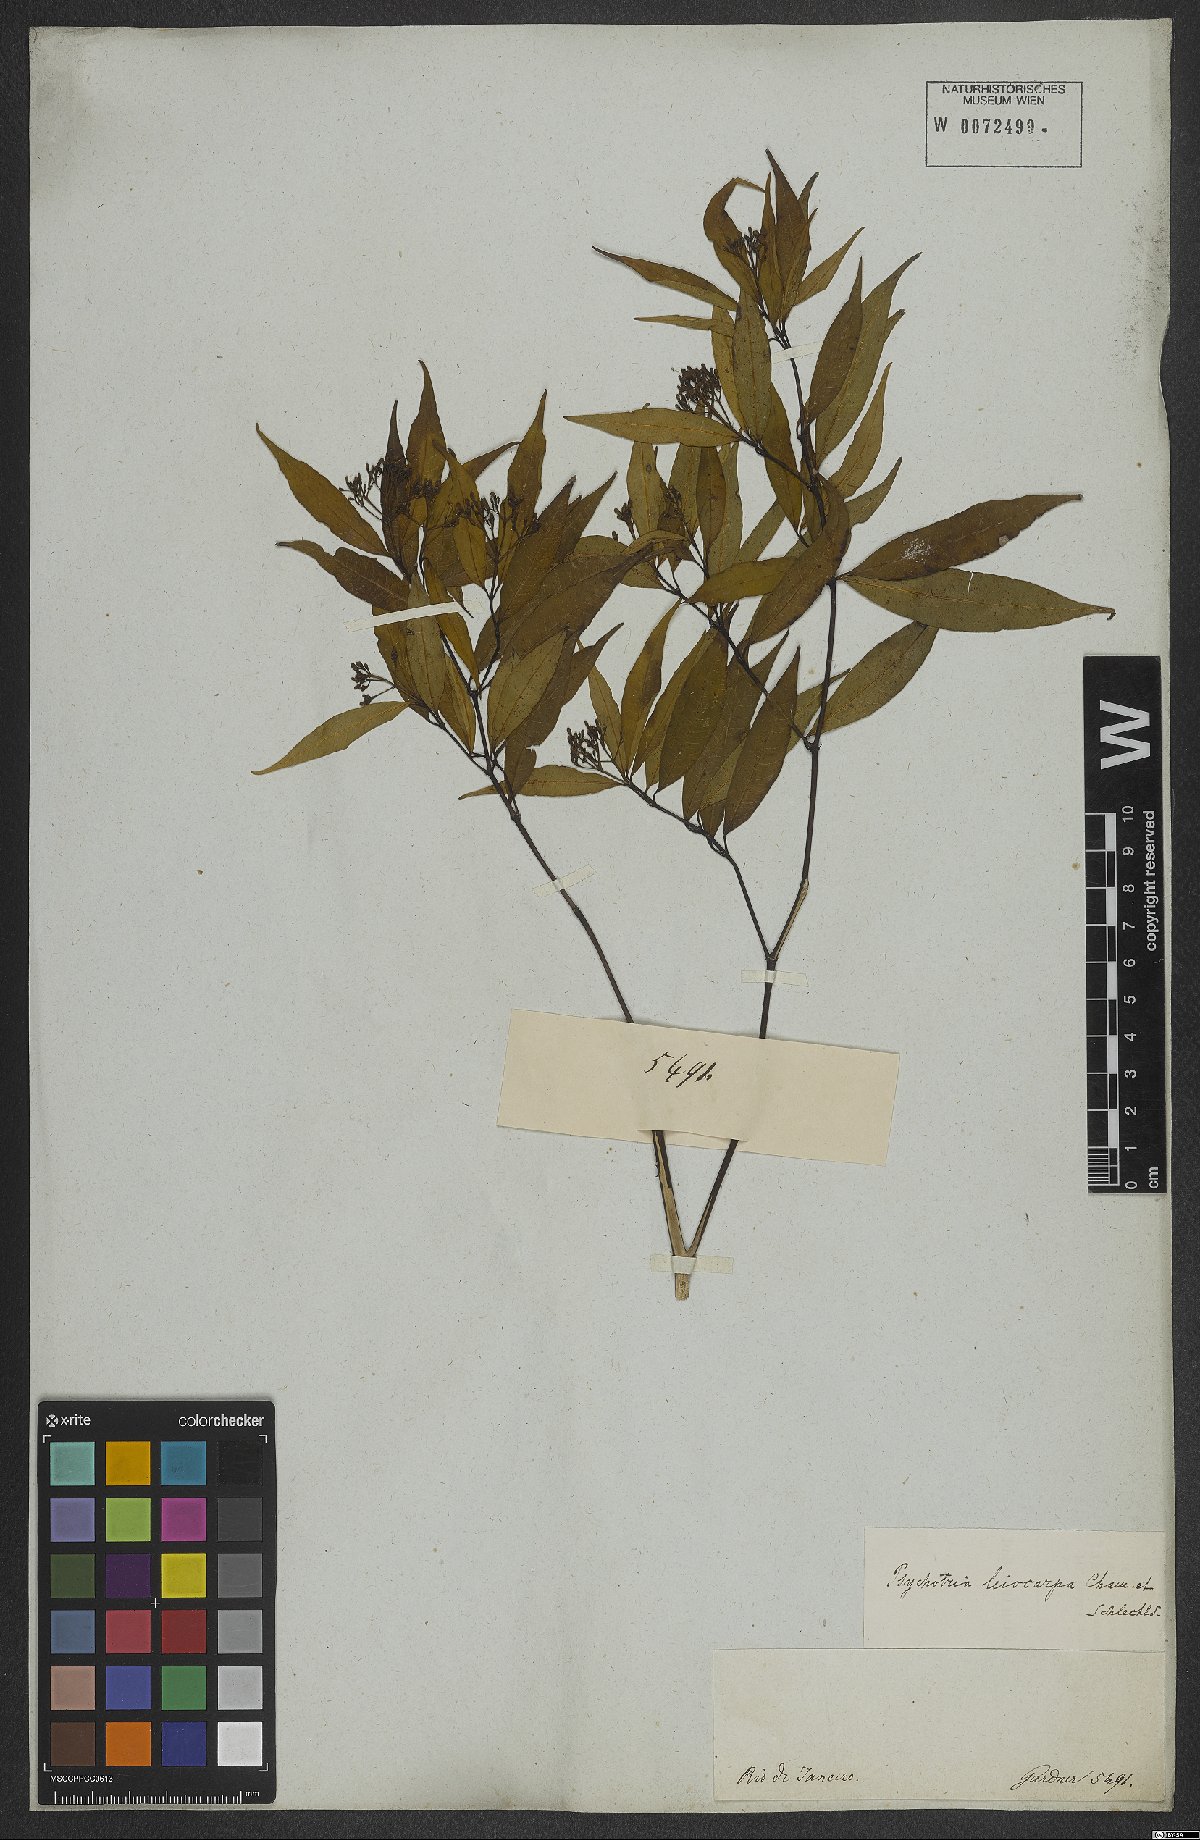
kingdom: Plantae
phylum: Tracheophyta
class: Magnoliopsida
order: Gentianales
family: Rubiaceae
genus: Psychotria
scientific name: Psychotria leiocarpa
